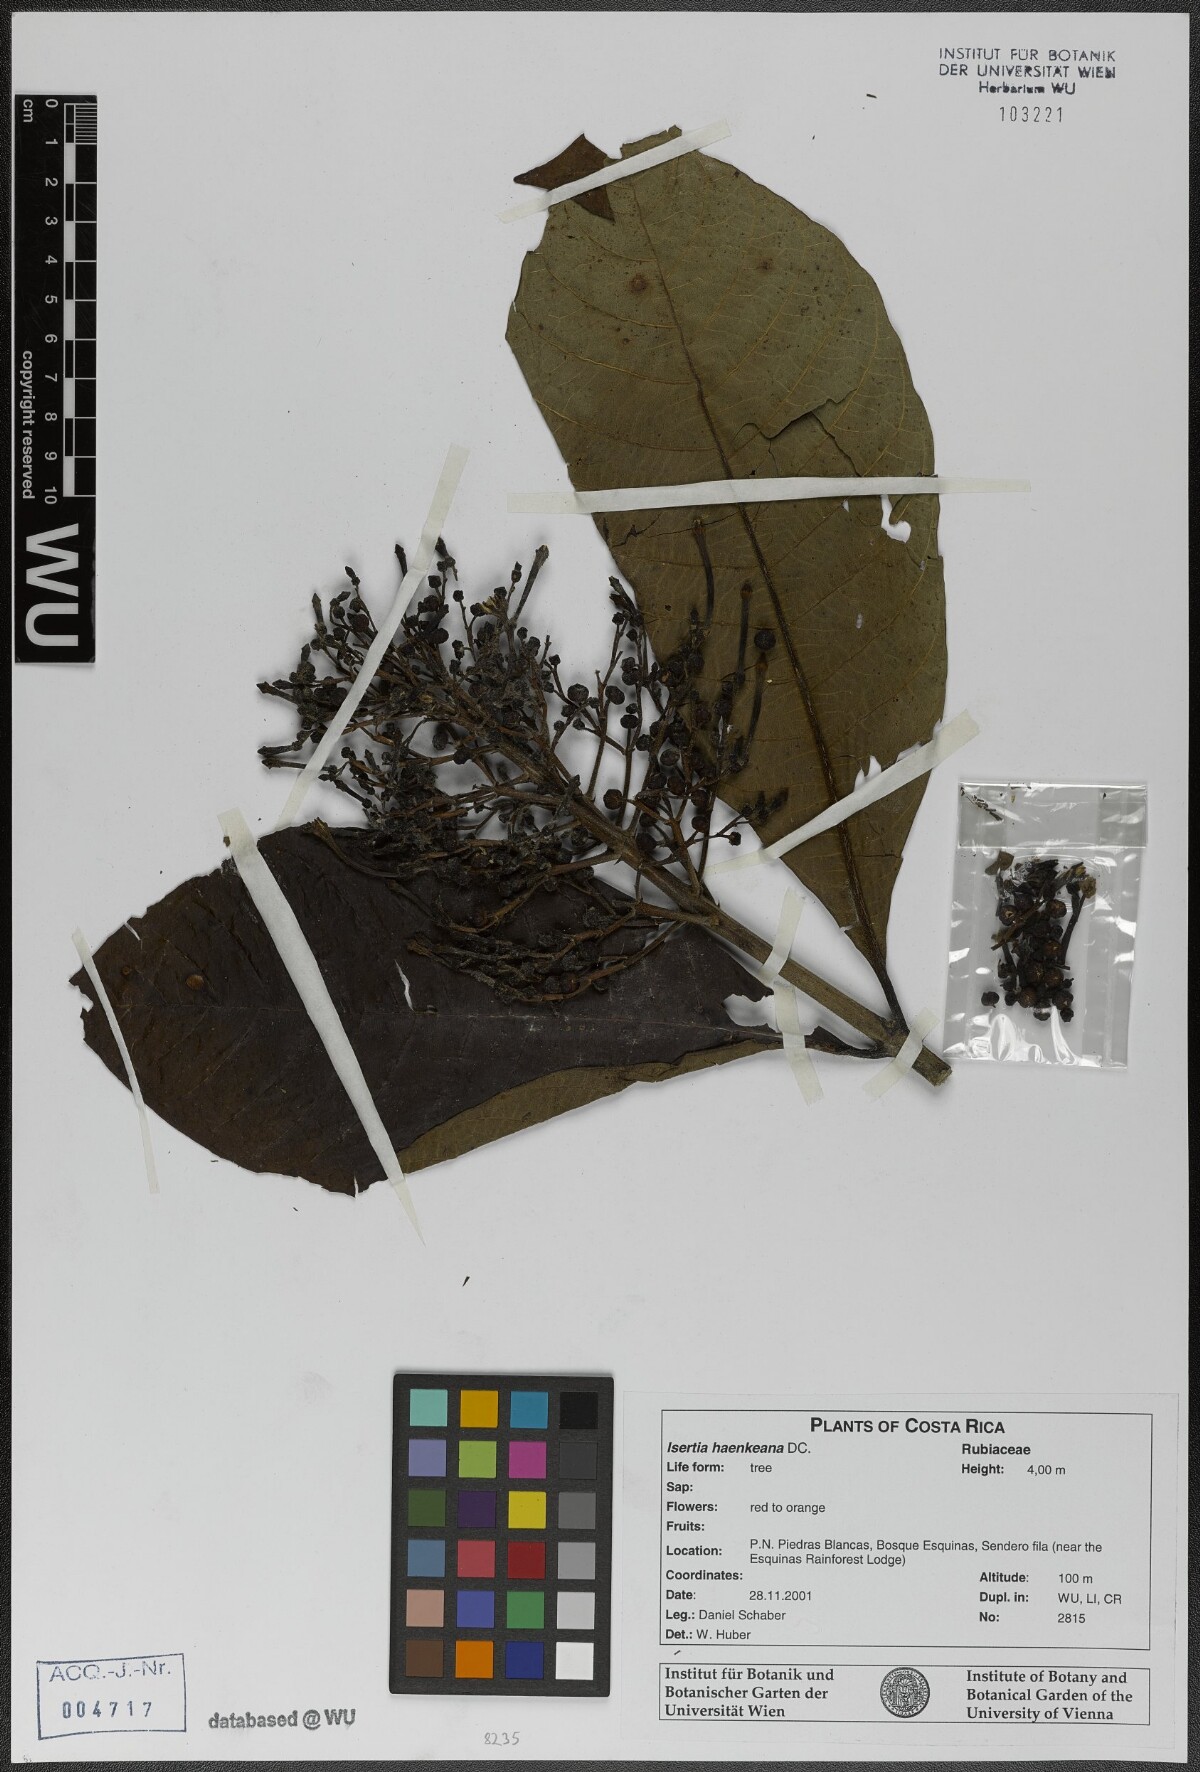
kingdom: Plantae
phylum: Tracheophyta
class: Magnoliopsida
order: Gentianales
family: Rubiaceae
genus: Isertia
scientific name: Isertia haenkeana
